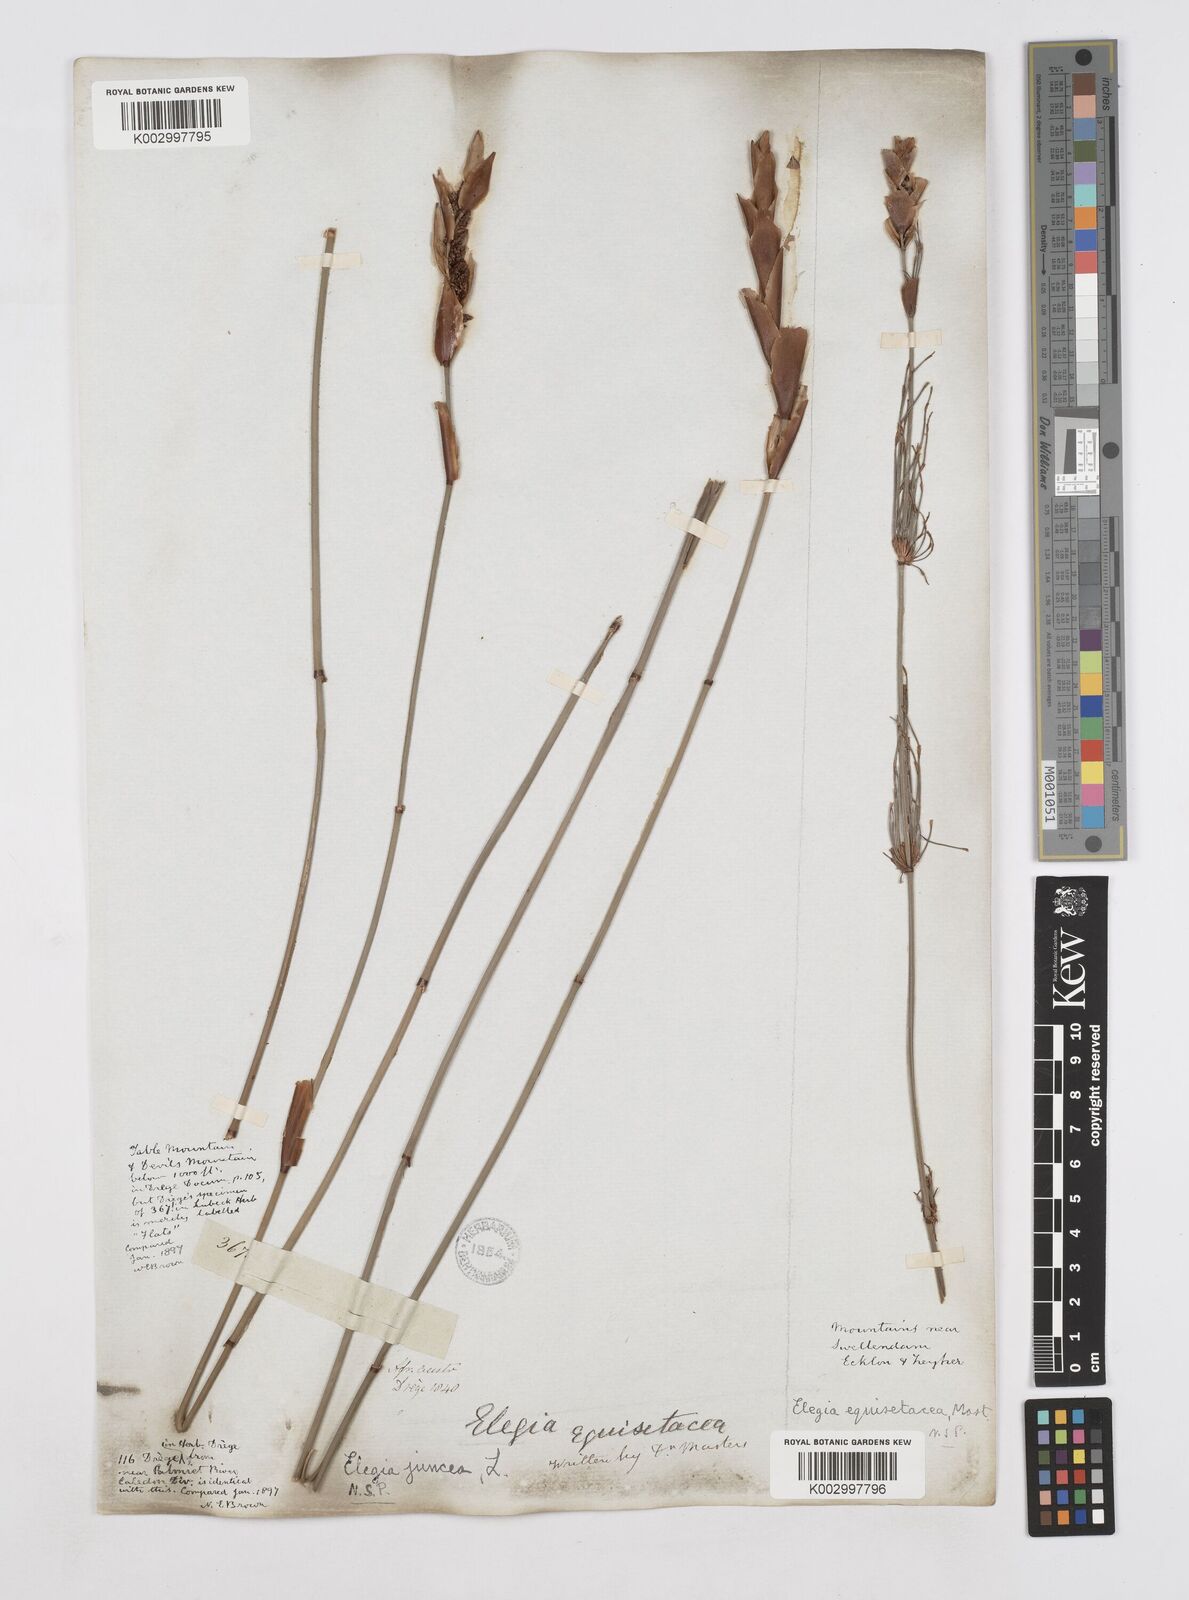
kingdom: Plantae
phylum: Tracheophyta
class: Liliopsida
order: Poales
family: Restionaceae
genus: Elegia
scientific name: Elegia juncea
